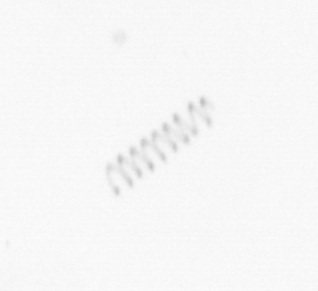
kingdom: Chromista
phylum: Ochrophyta
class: Bacillariophyceae
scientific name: Bacillariophyceae
